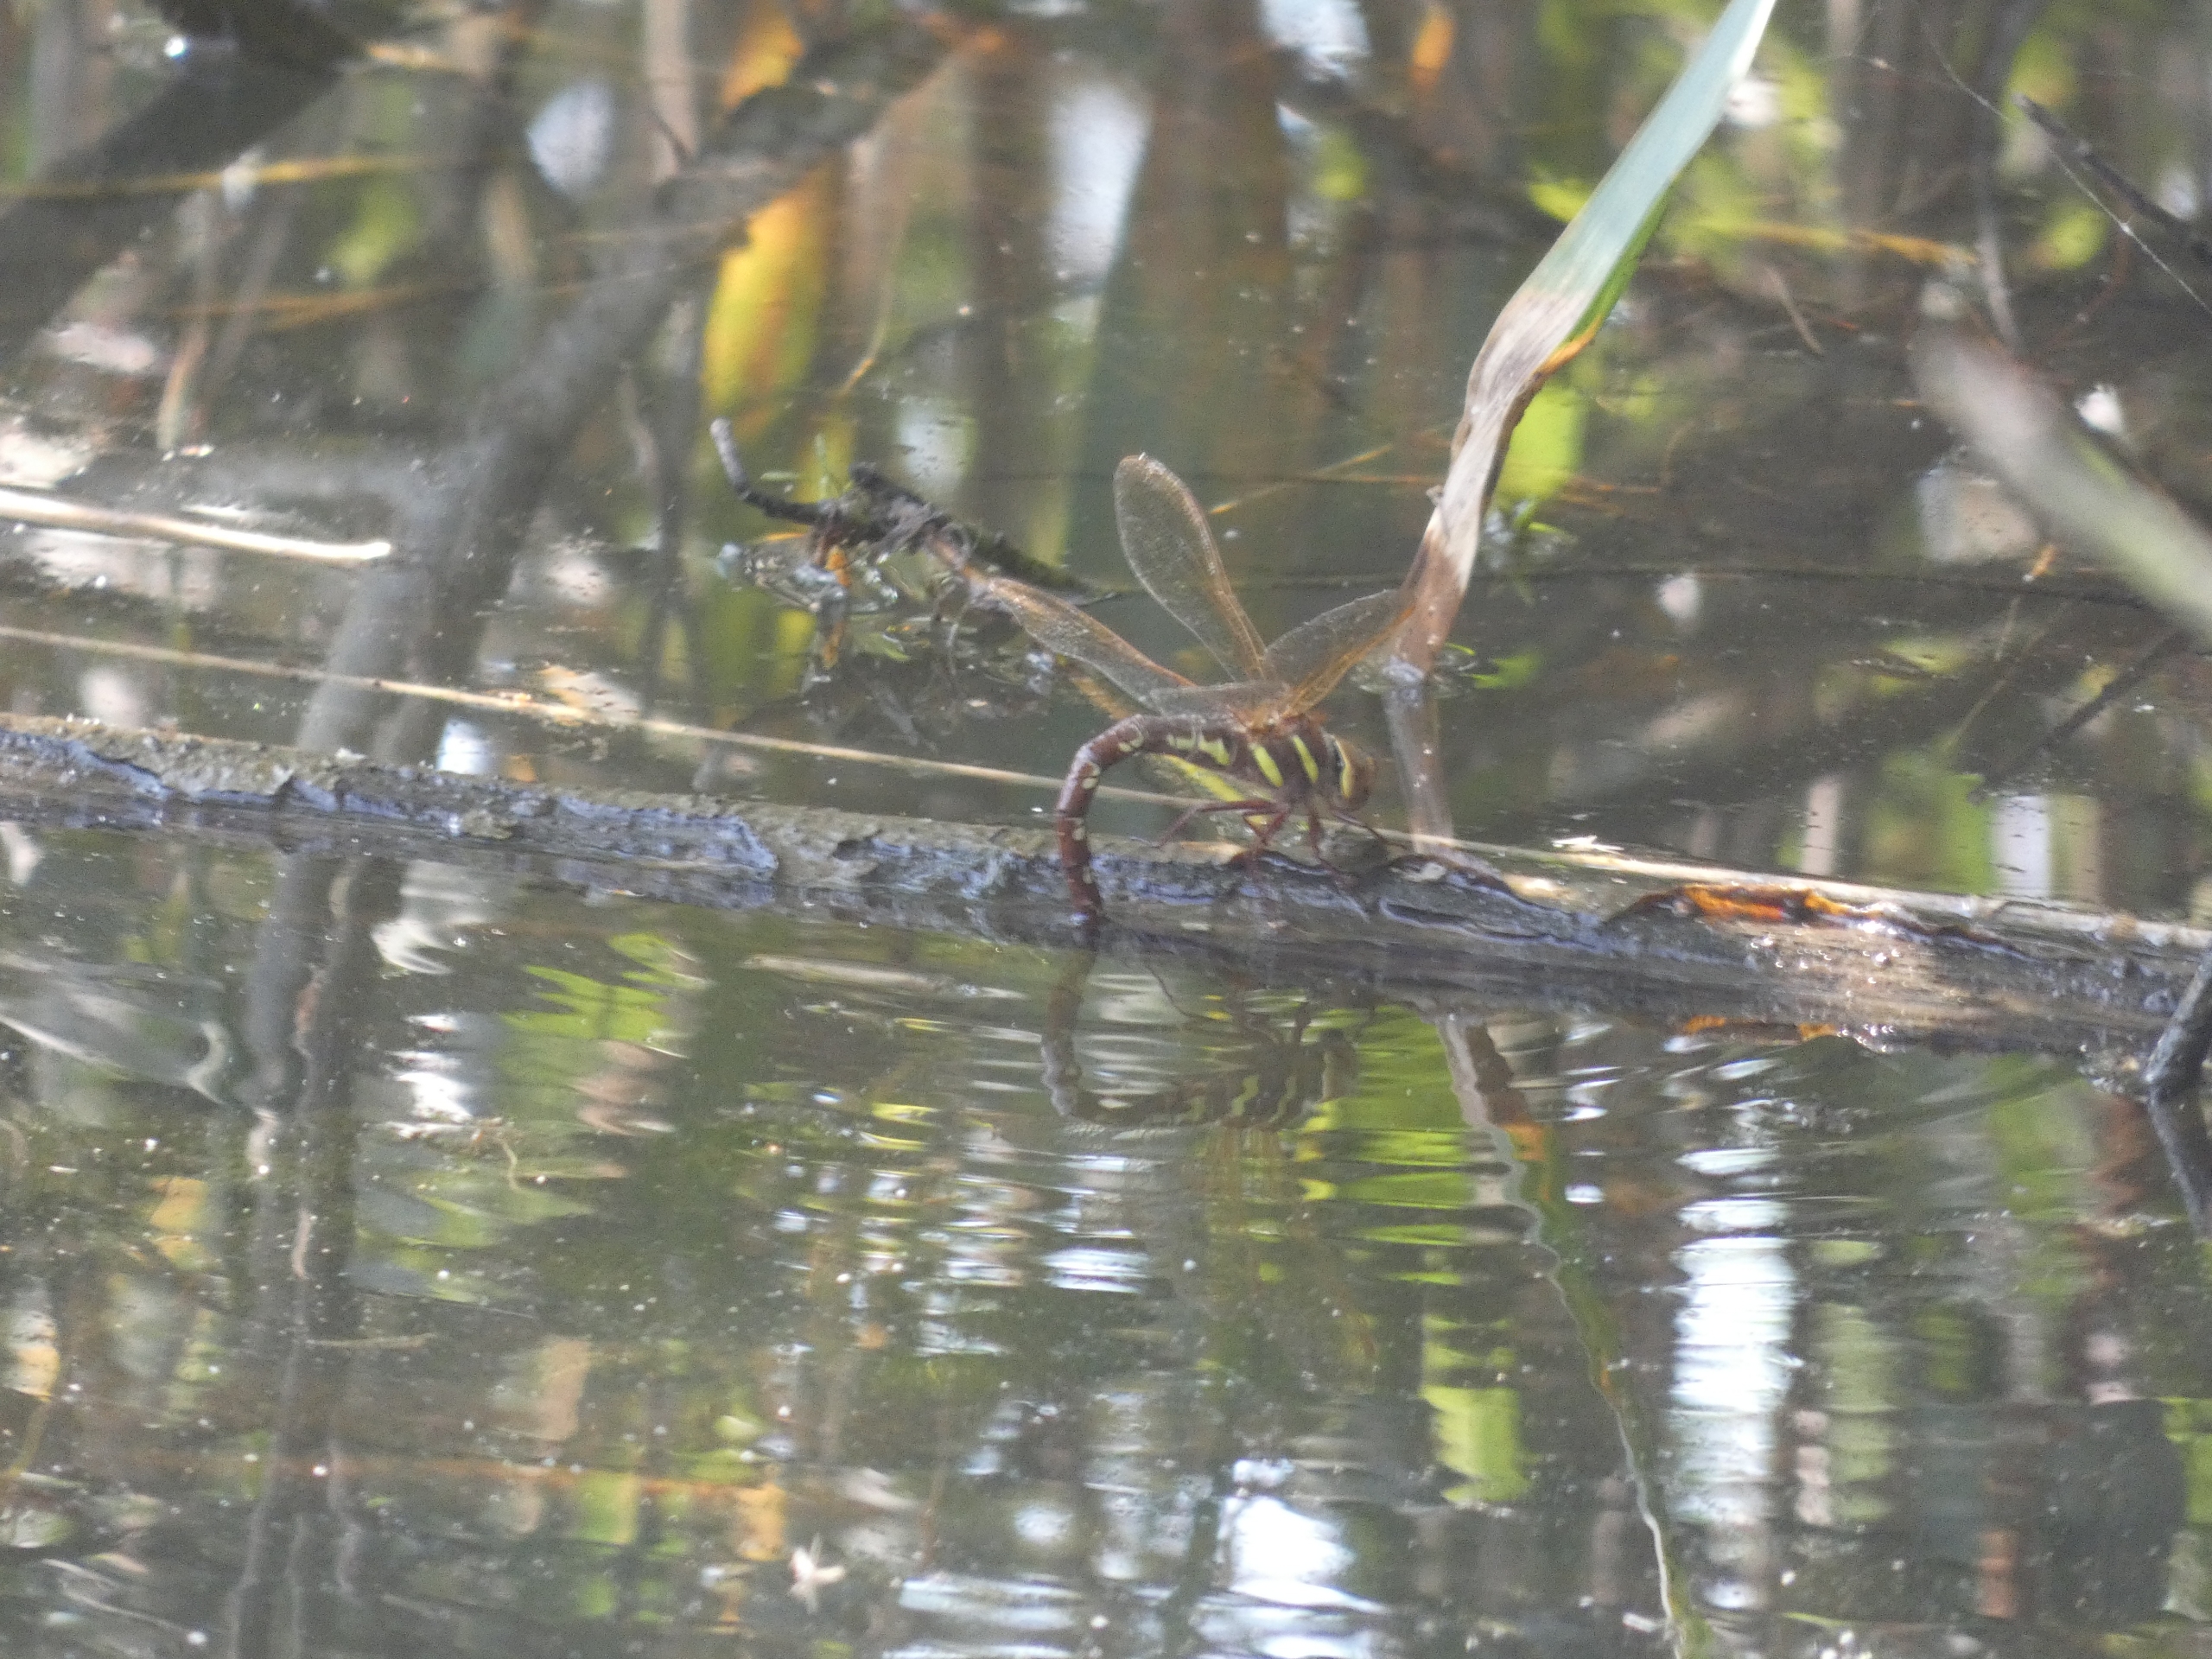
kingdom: Animalia
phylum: Arthropoda
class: Insecta
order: Odonata
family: Aeshnidae
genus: Aeshna
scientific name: Aeshna grandis
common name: Brun mosaikguldsmed
